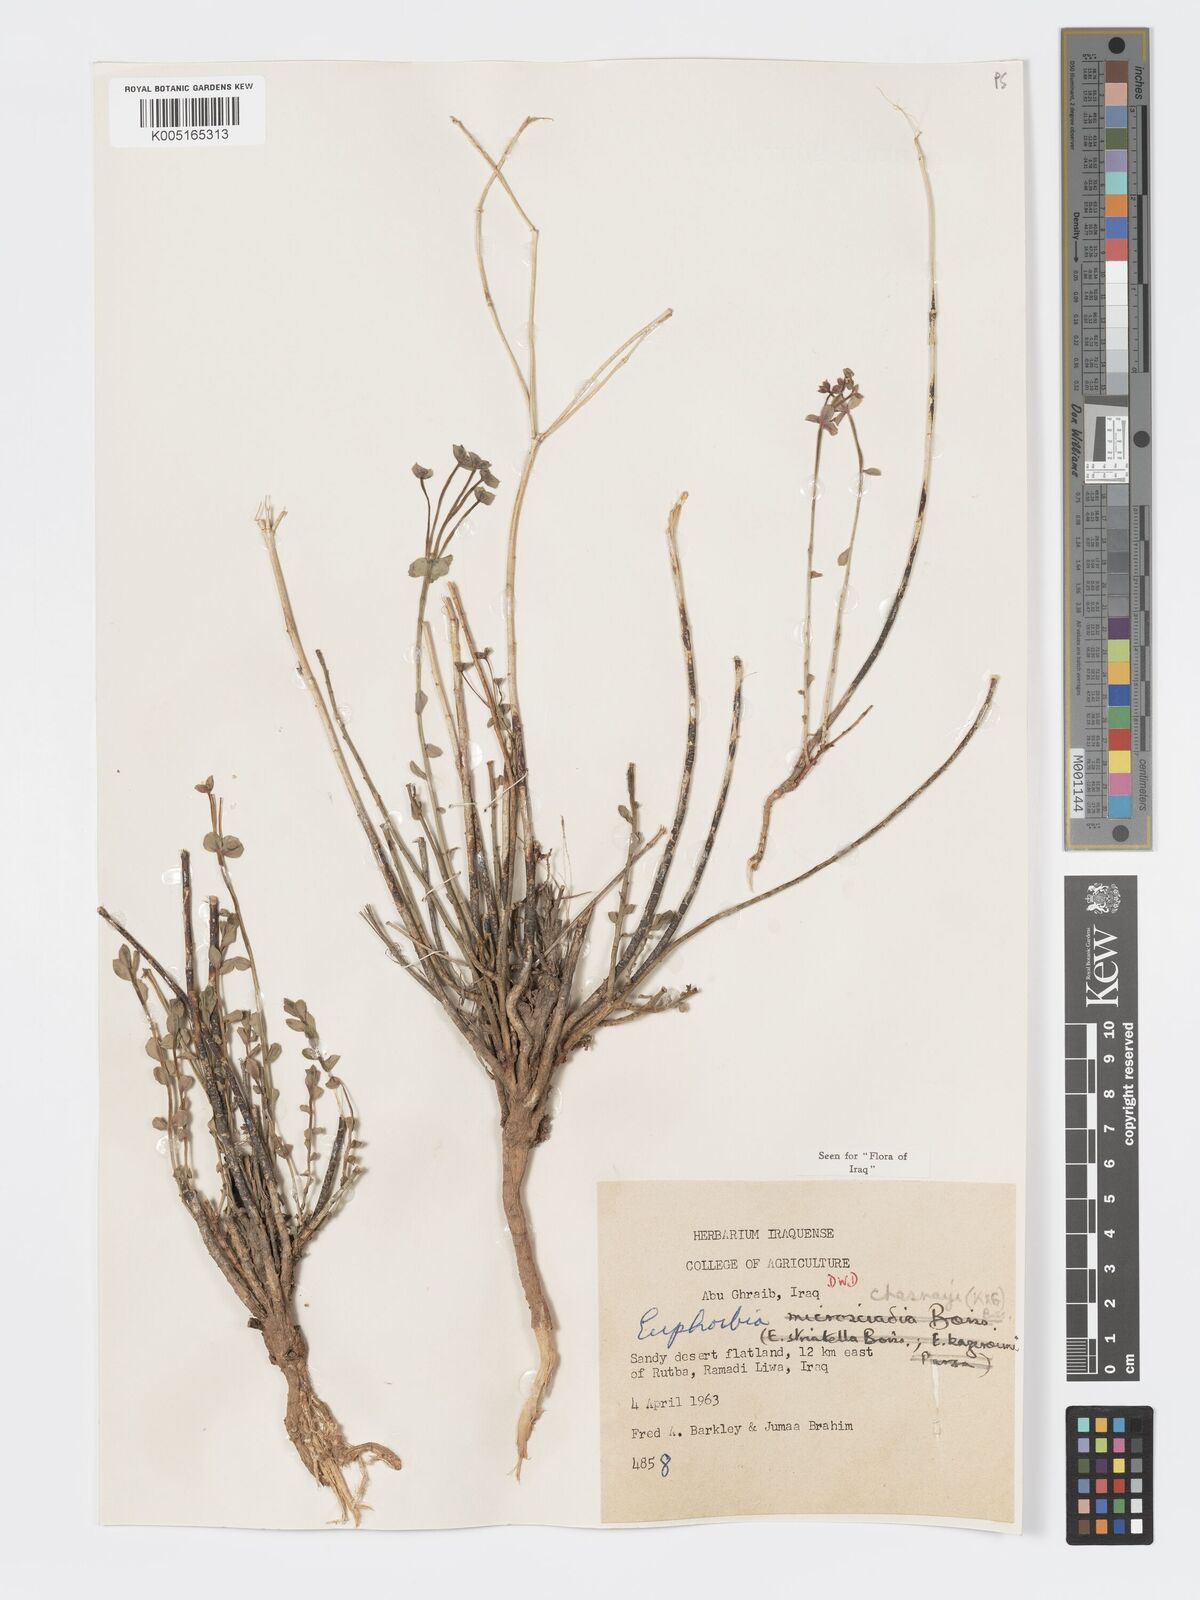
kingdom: Plantae
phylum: Tracheophyta
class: Magnoliopsida
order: Malpighiales
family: Euphorbiaceae
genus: Euphorbia
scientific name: Euphorbia cuspidata
